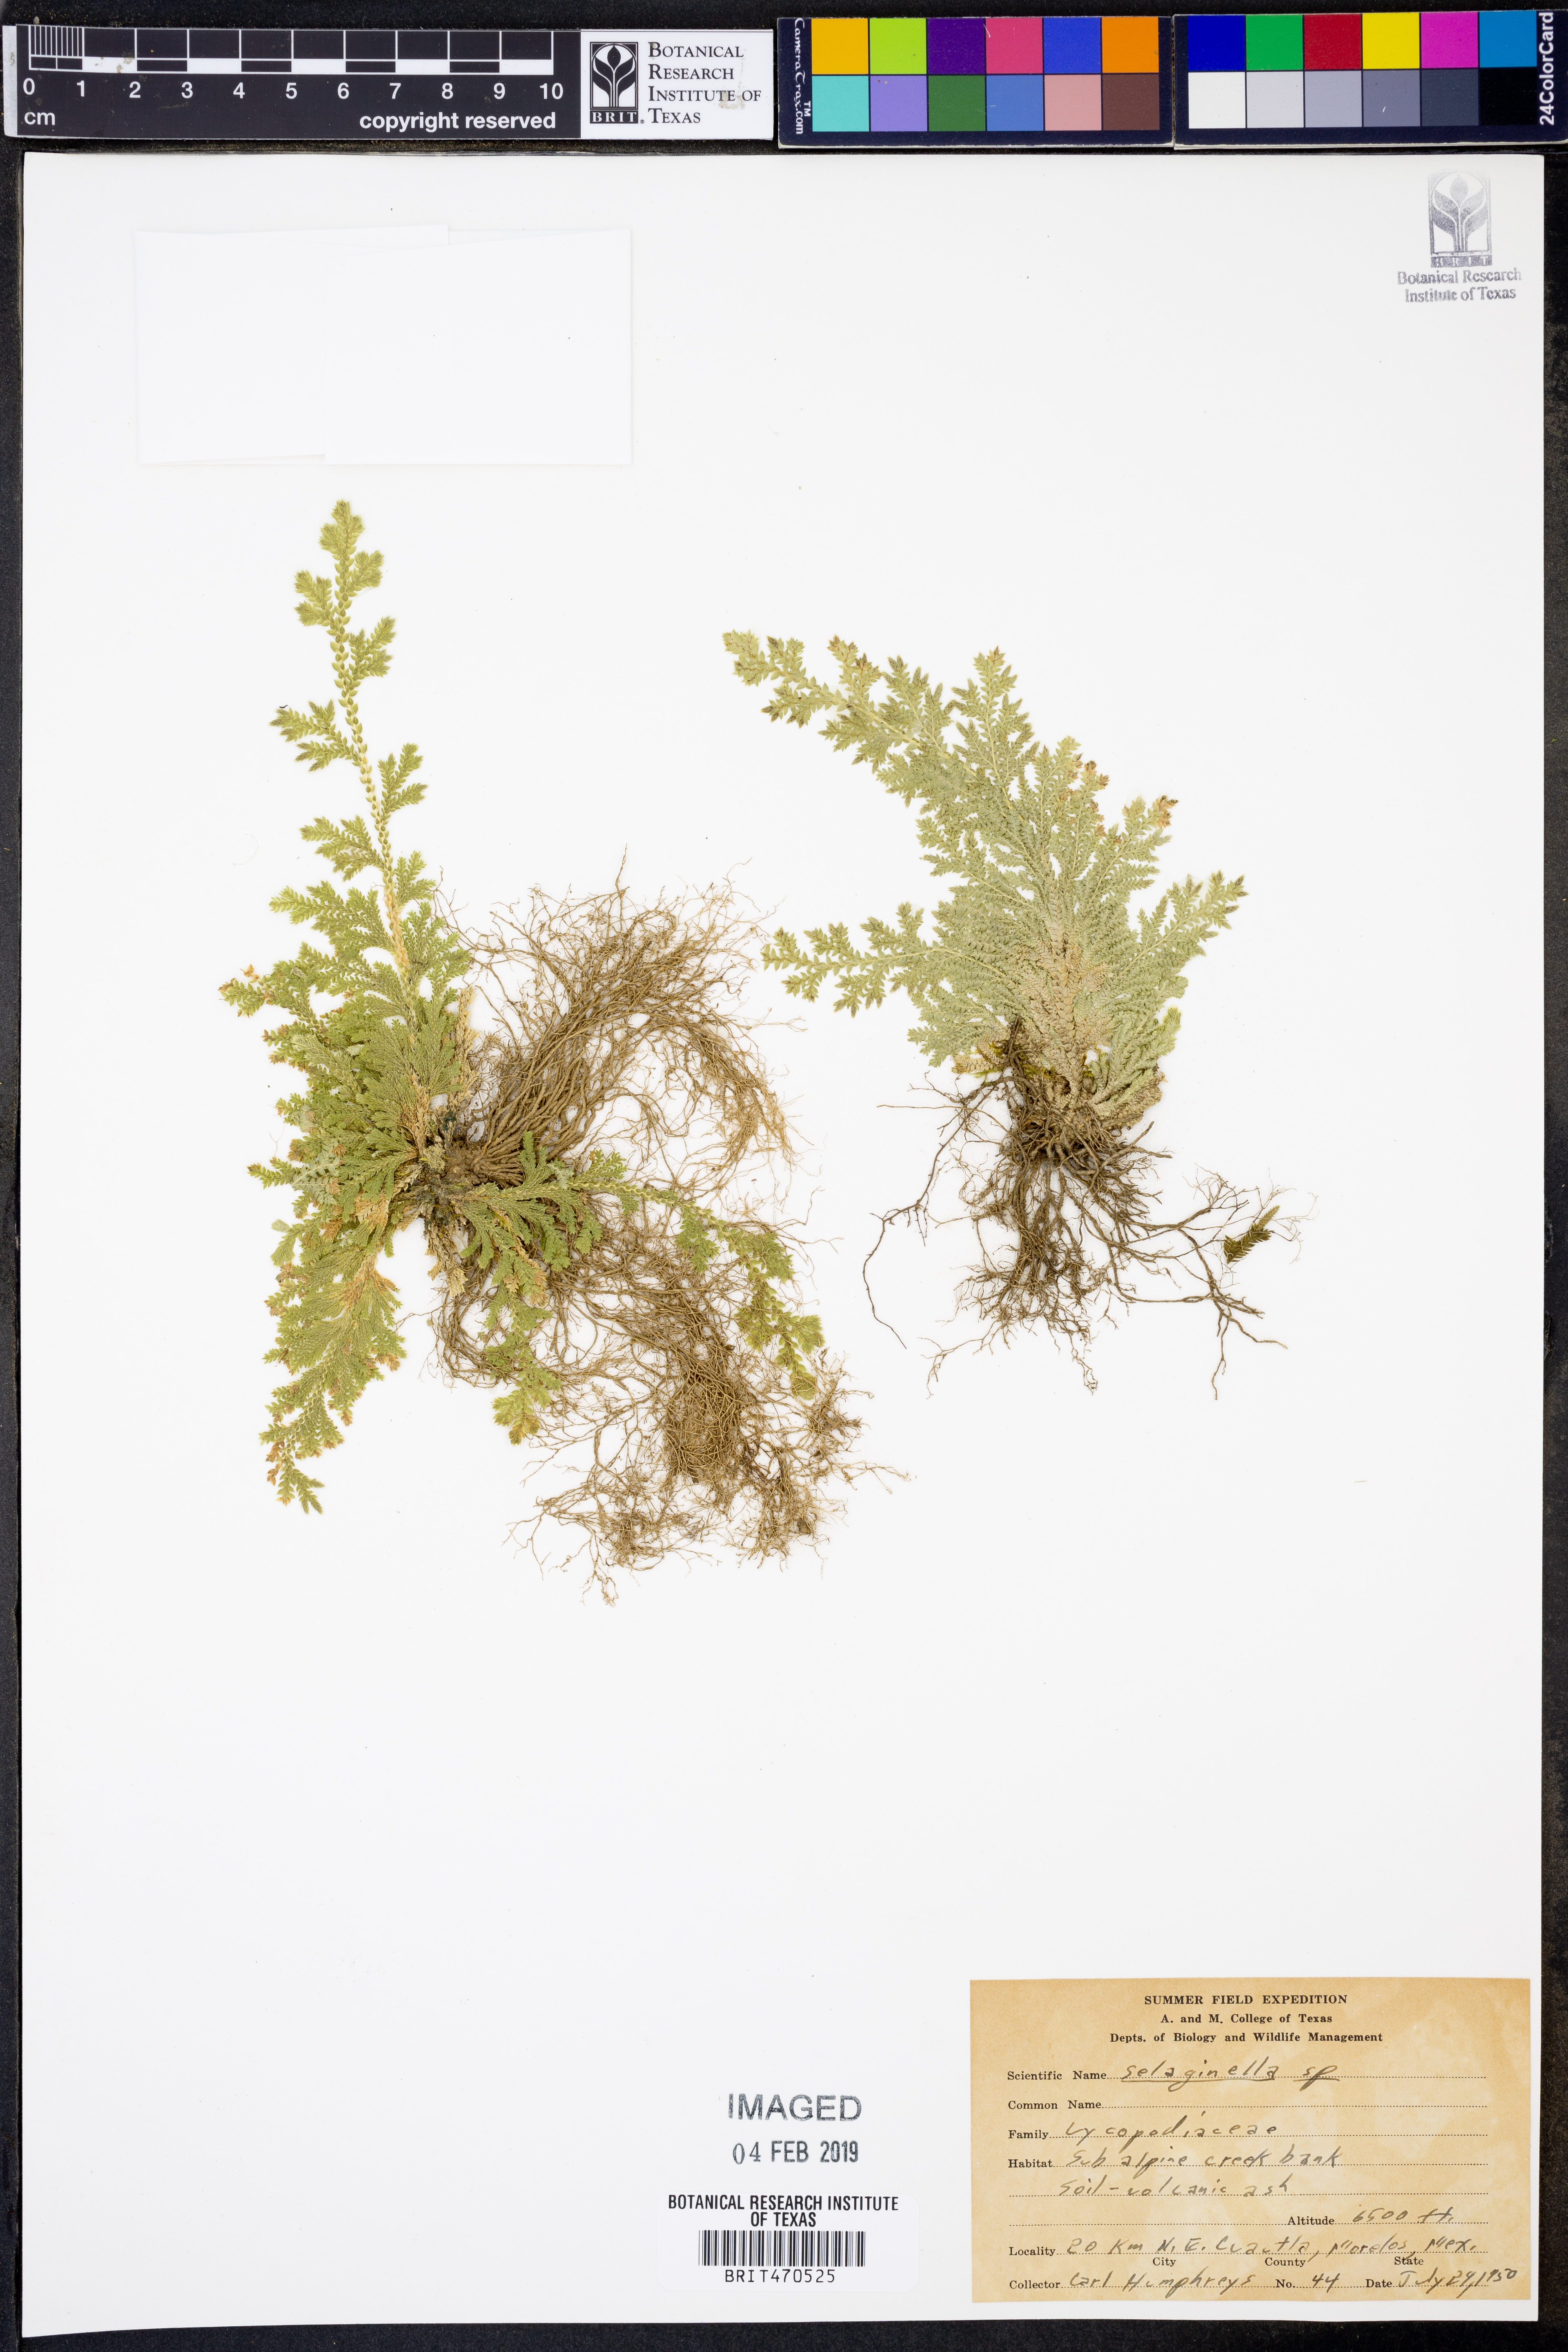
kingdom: Plantae
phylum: Tracheophyta
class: Lycopodiopsida
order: Selaginellales
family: Selaginellaceae
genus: Selaginella
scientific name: Selaginella
